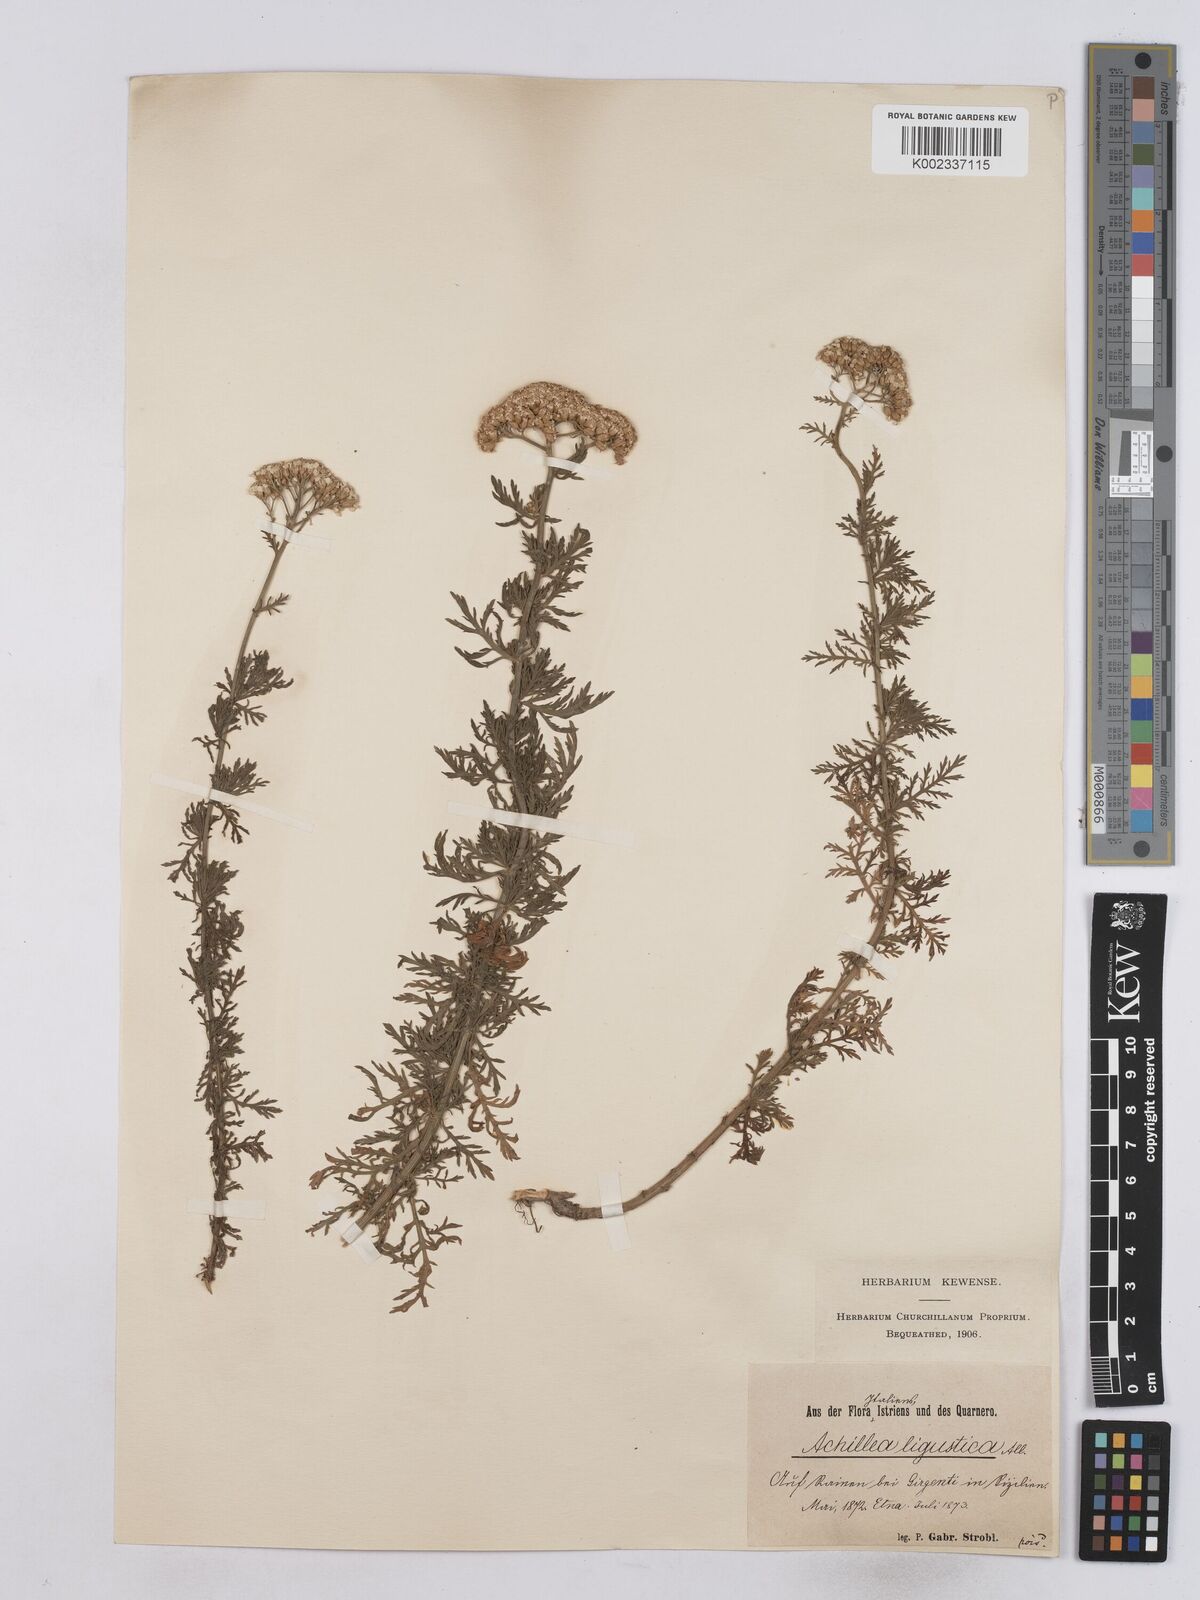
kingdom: Plantae
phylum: Tracheophyta
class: Magnoliopsida
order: Asterales
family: Asteraceae
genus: Achillea
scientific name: Achillea ligustica
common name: Southern yarrow
